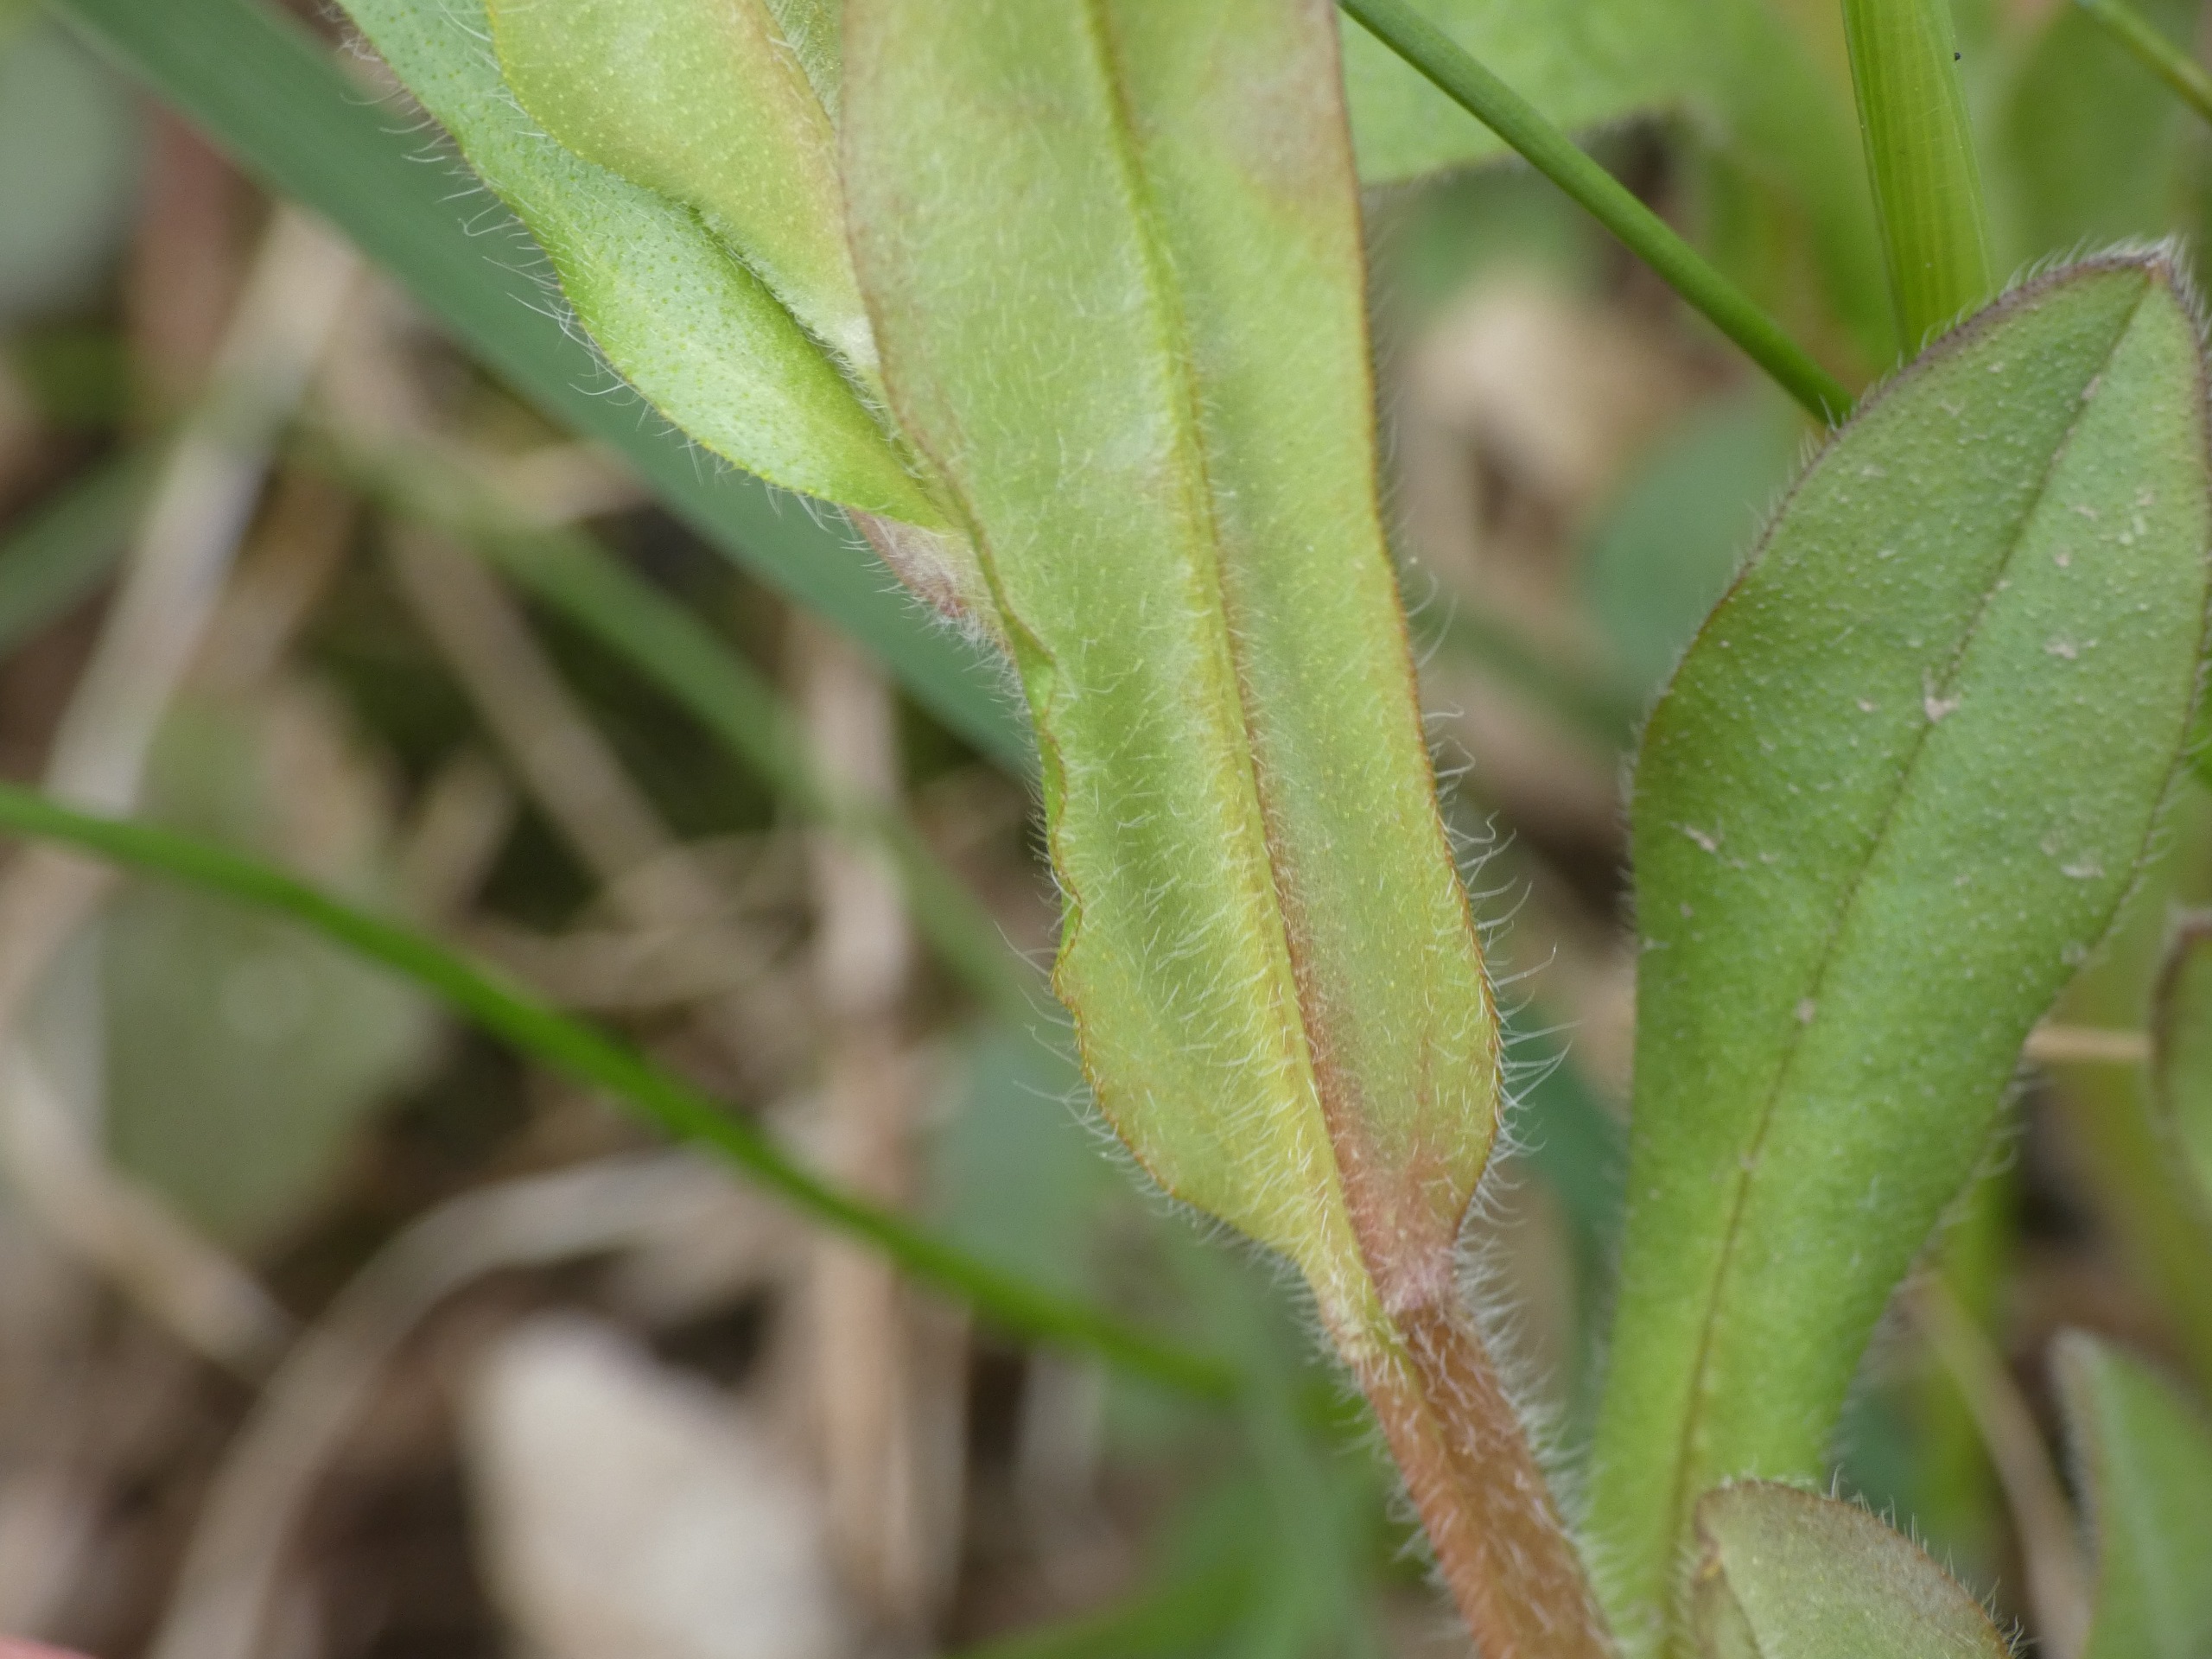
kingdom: Plantae
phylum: Tracheophyta
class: Magnoliopsida
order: Boraginales
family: Boraginaceae
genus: Myosotis
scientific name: Myosotis sylvatica
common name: Skov-forglemmigej
